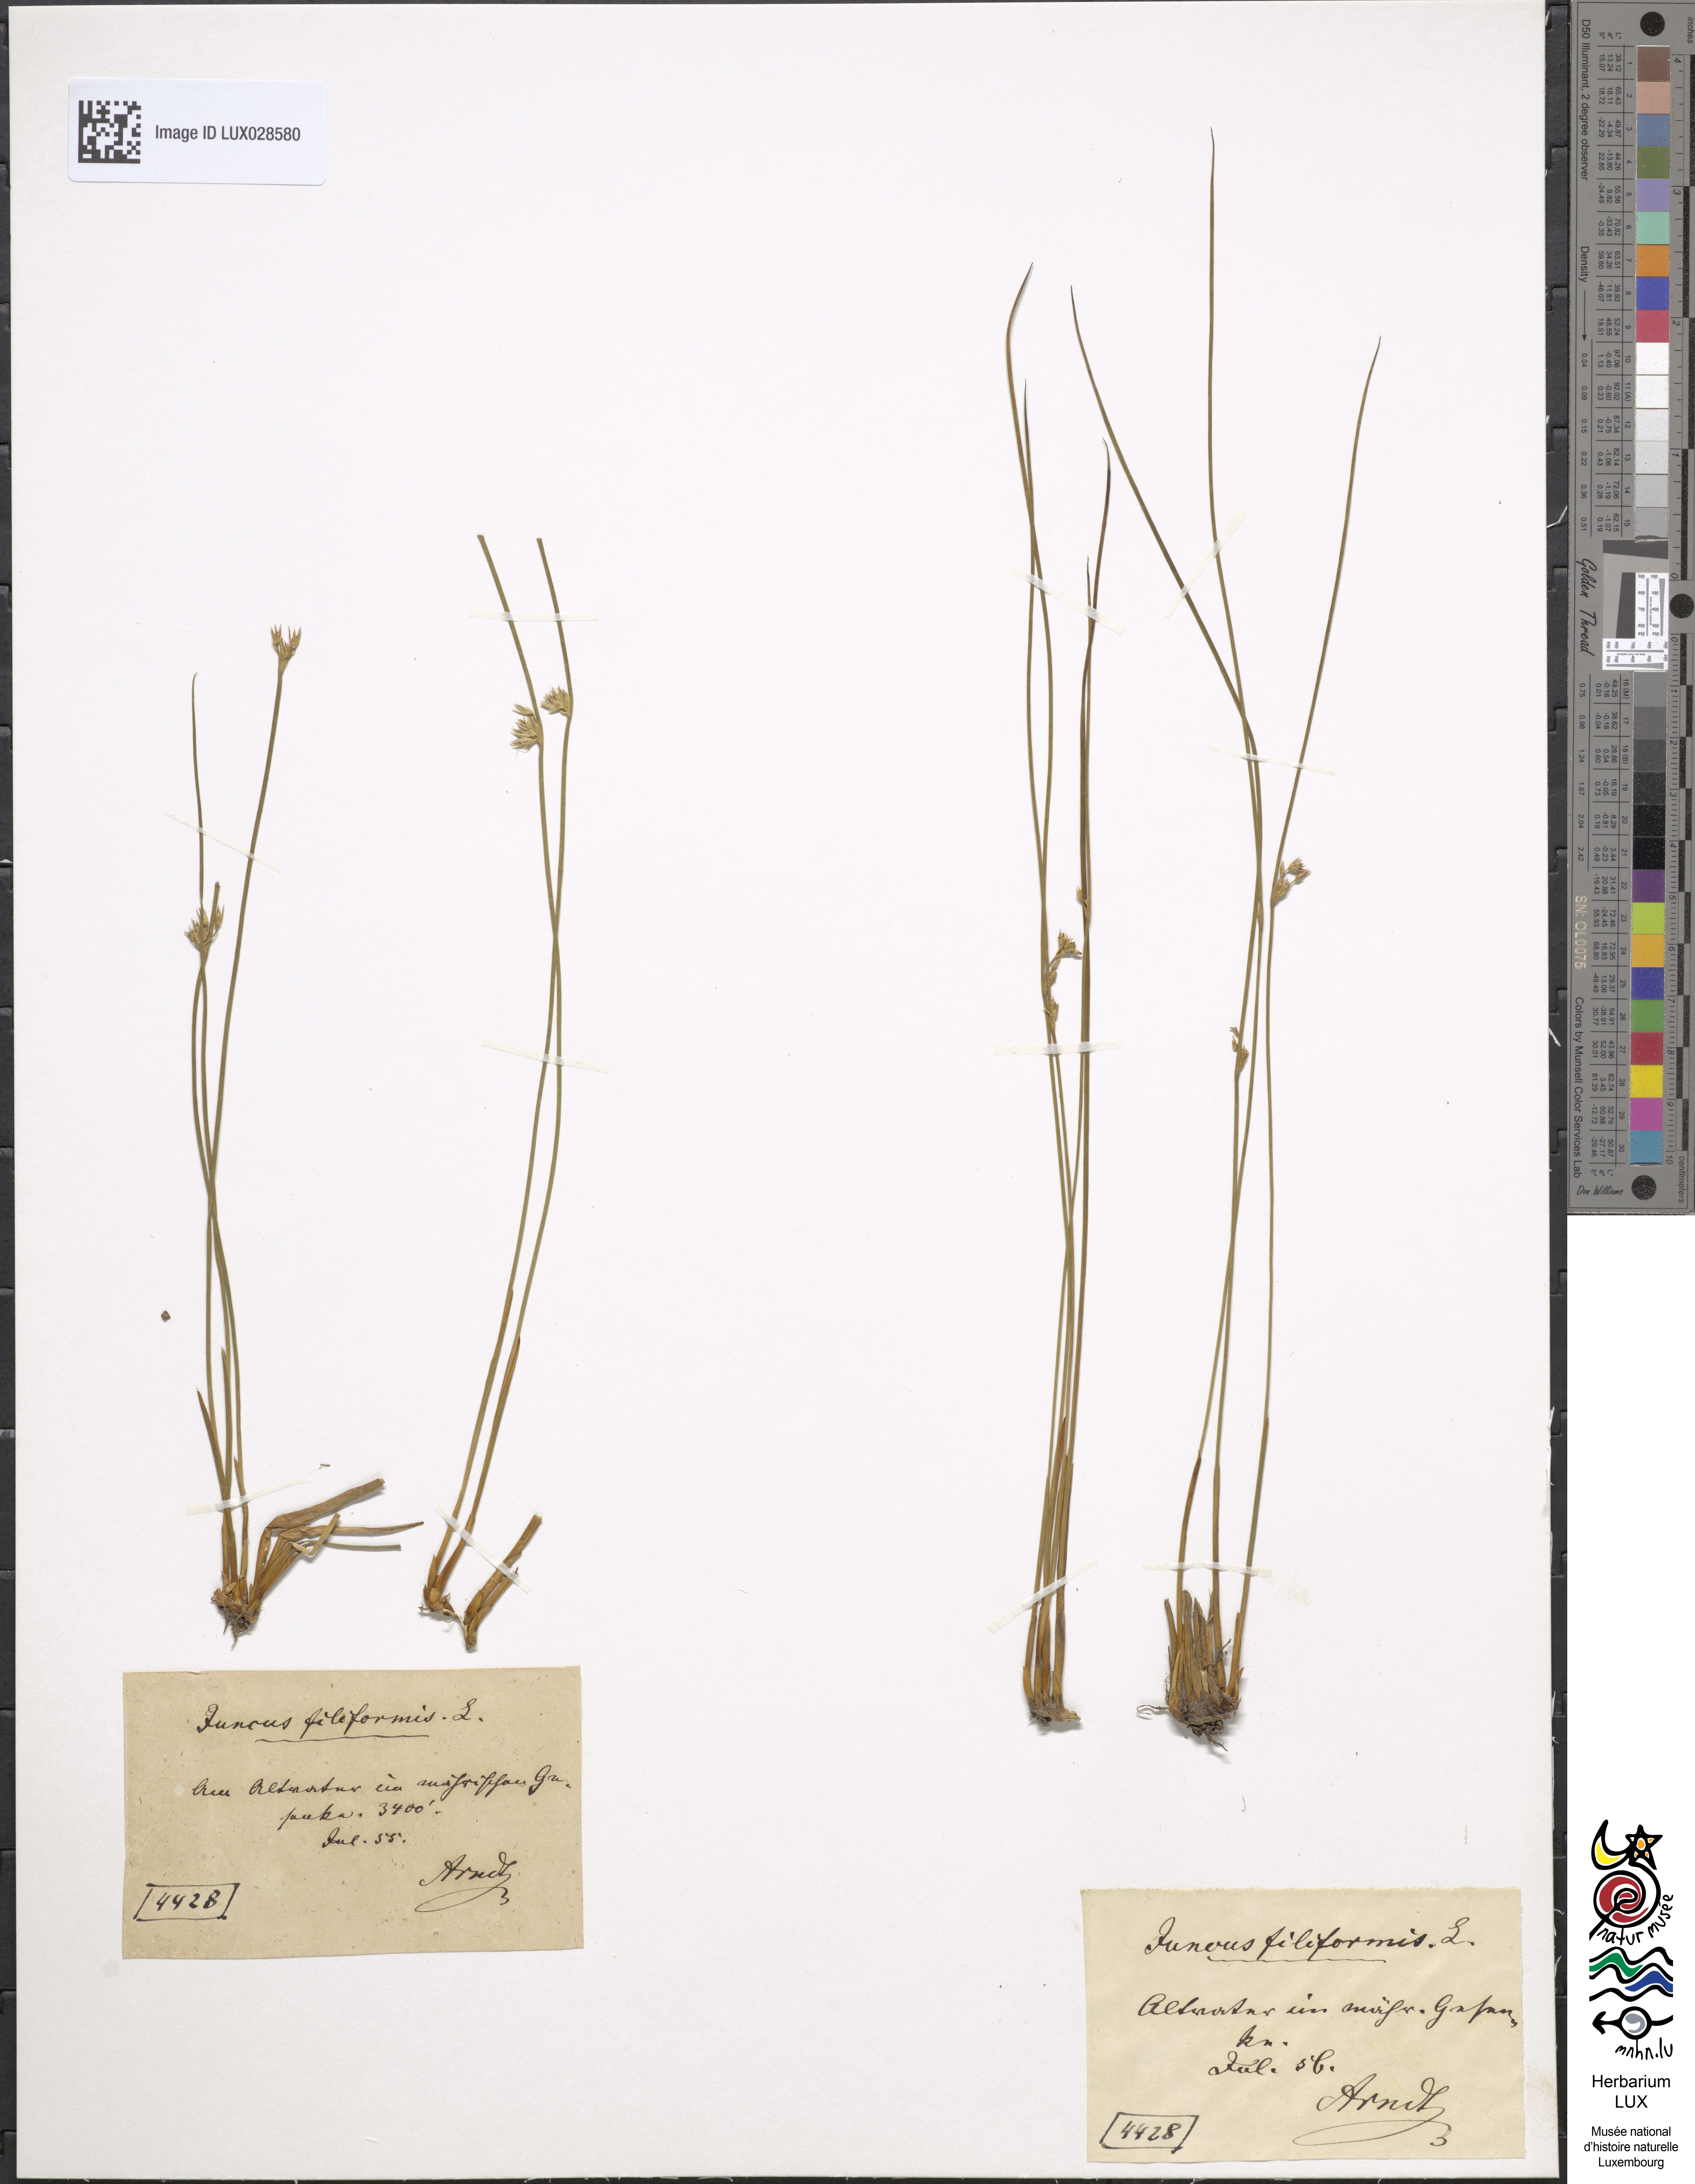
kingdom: Plantae
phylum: Tracheophyta
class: Liliopsida
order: Poales
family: Juncaceae
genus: Juncus
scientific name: Juncus filiformis
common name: Thread rush
